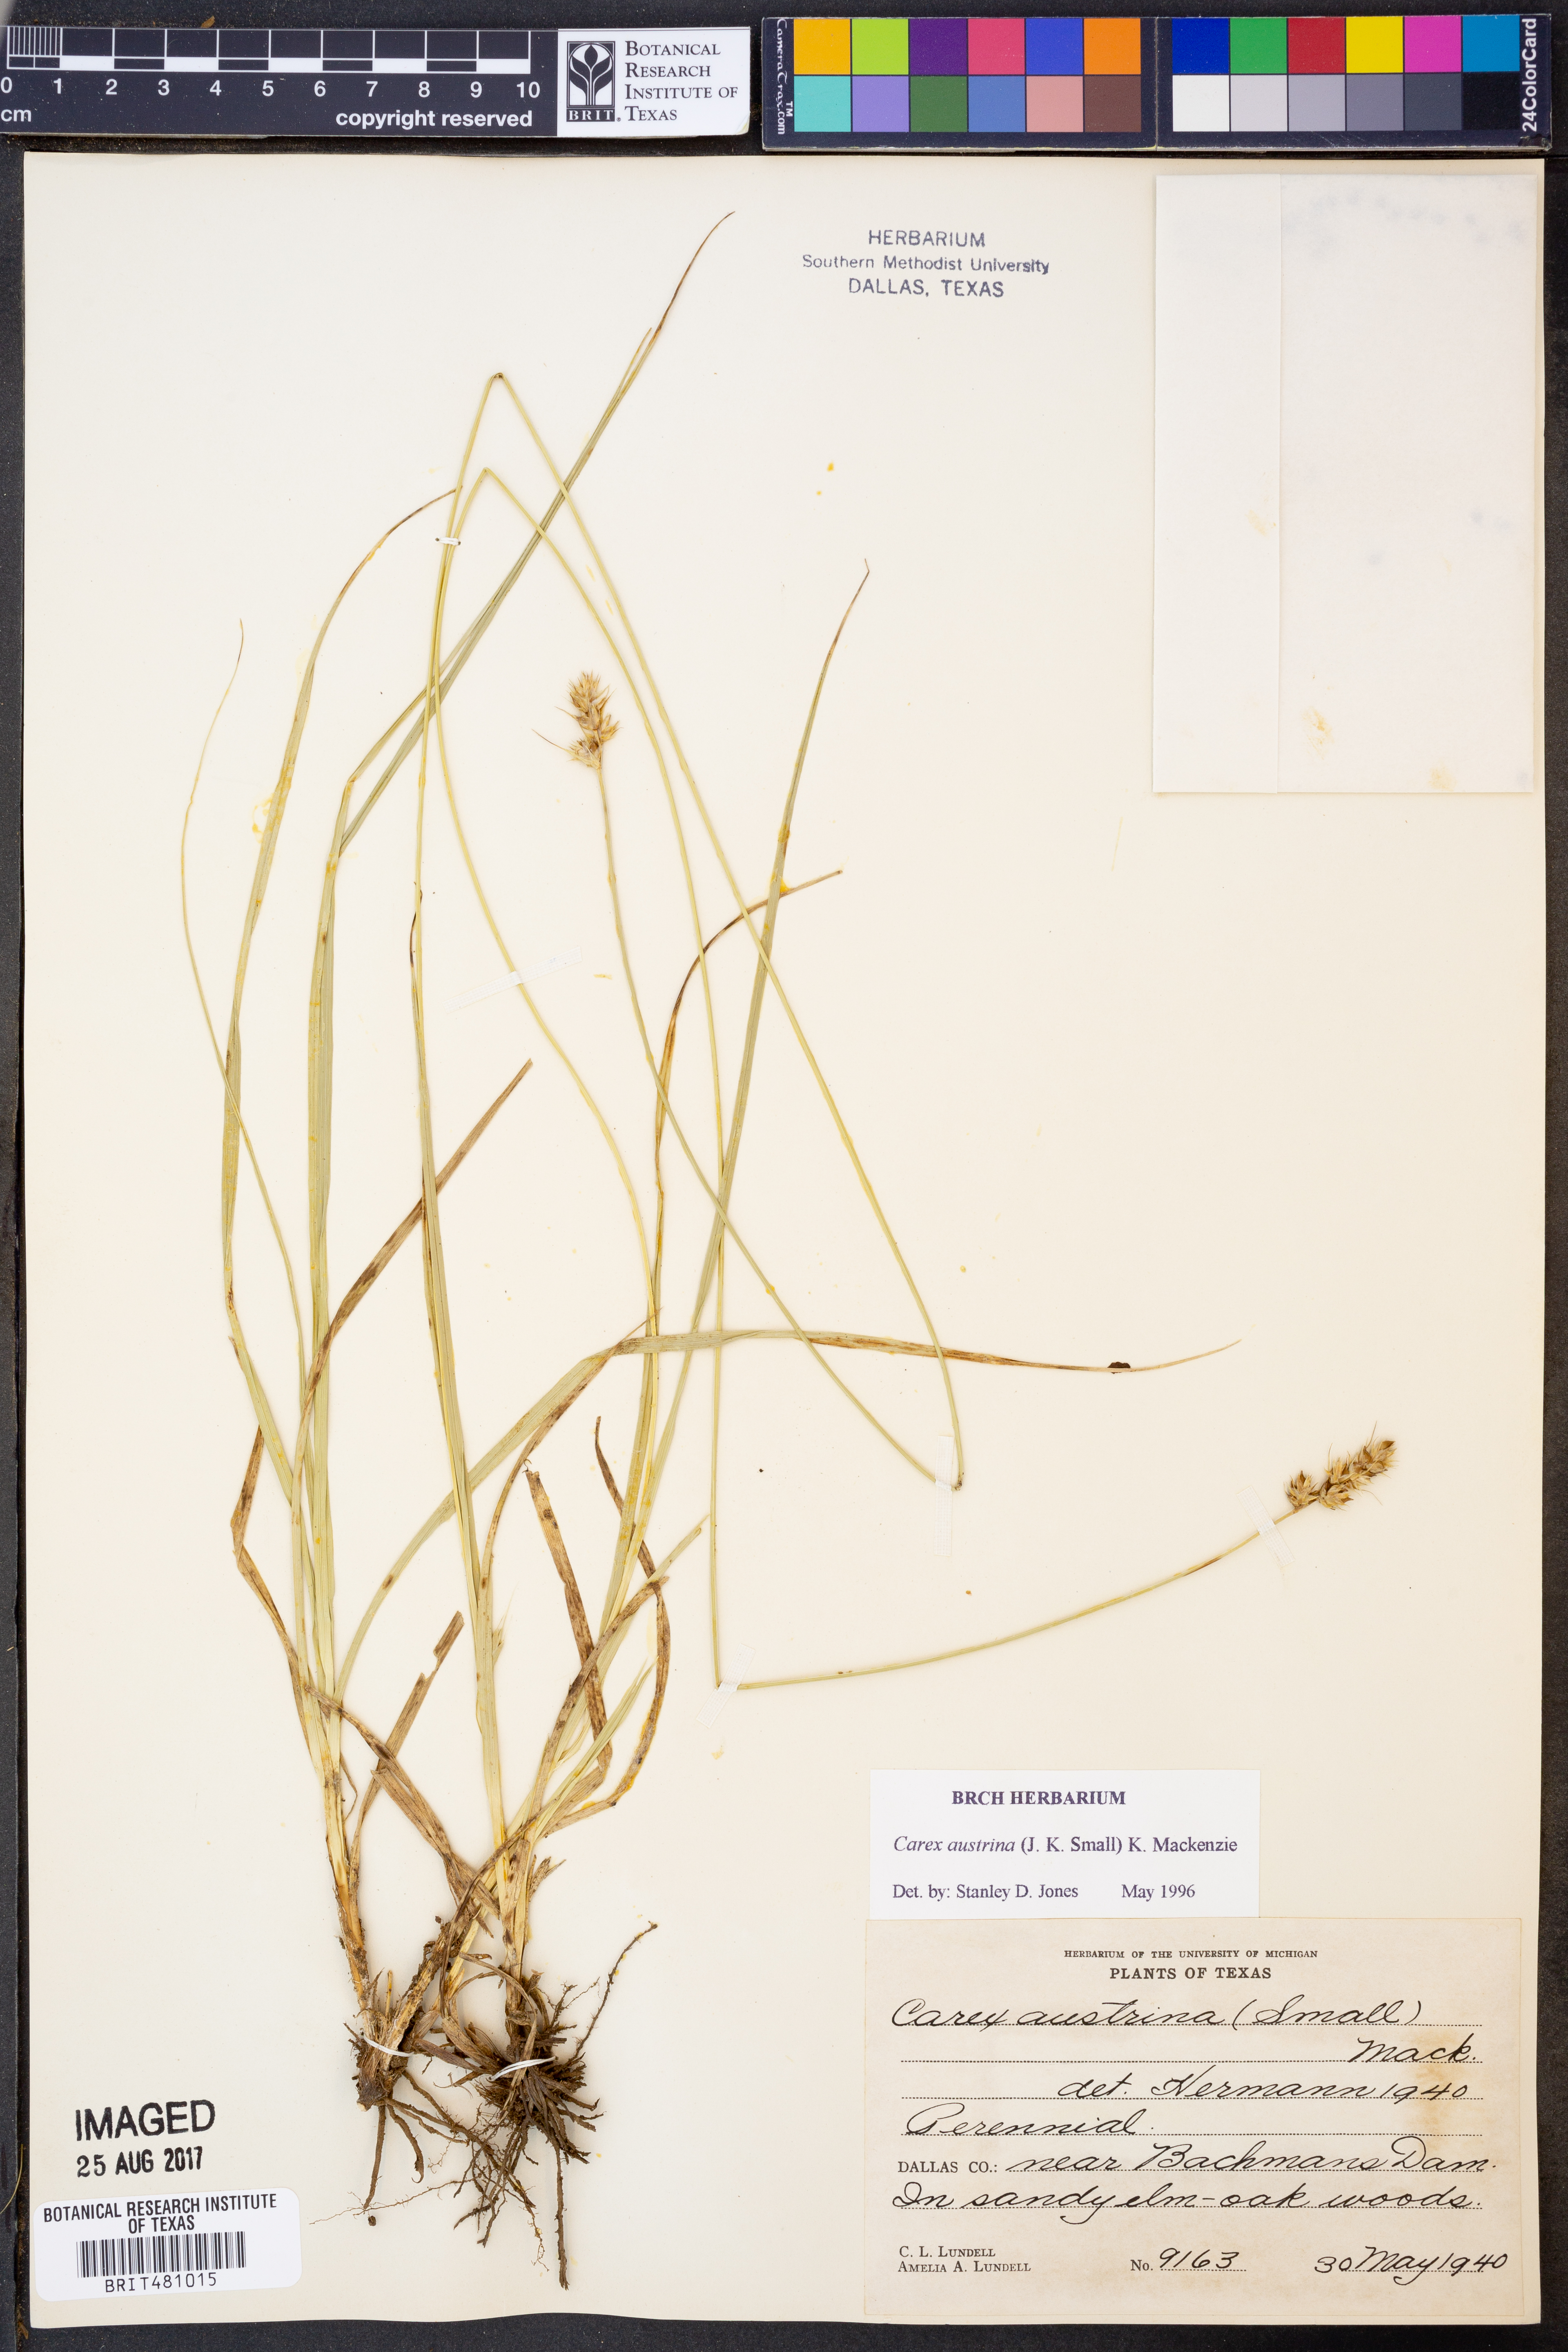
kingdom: Plantae
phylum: Tracheophyta
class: Liliopsida
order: Poales
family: Cyperaceae
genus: Carex
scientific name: Carex austrina
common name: Southern sedge
